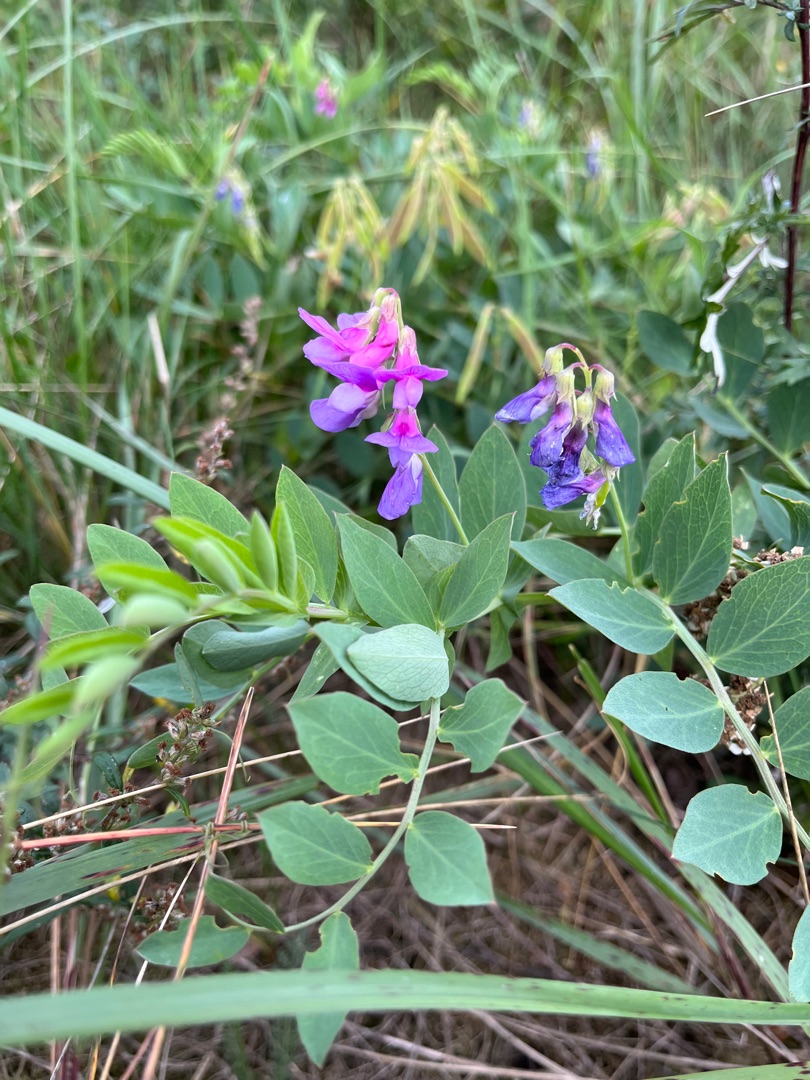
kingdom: Plantae
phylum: Tracheophyta
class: Magnoliopsida
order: Fabales
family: Fabaceae
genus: Lathyrus
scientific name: Lathyrus japonicus
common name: Strand-fladbælg
